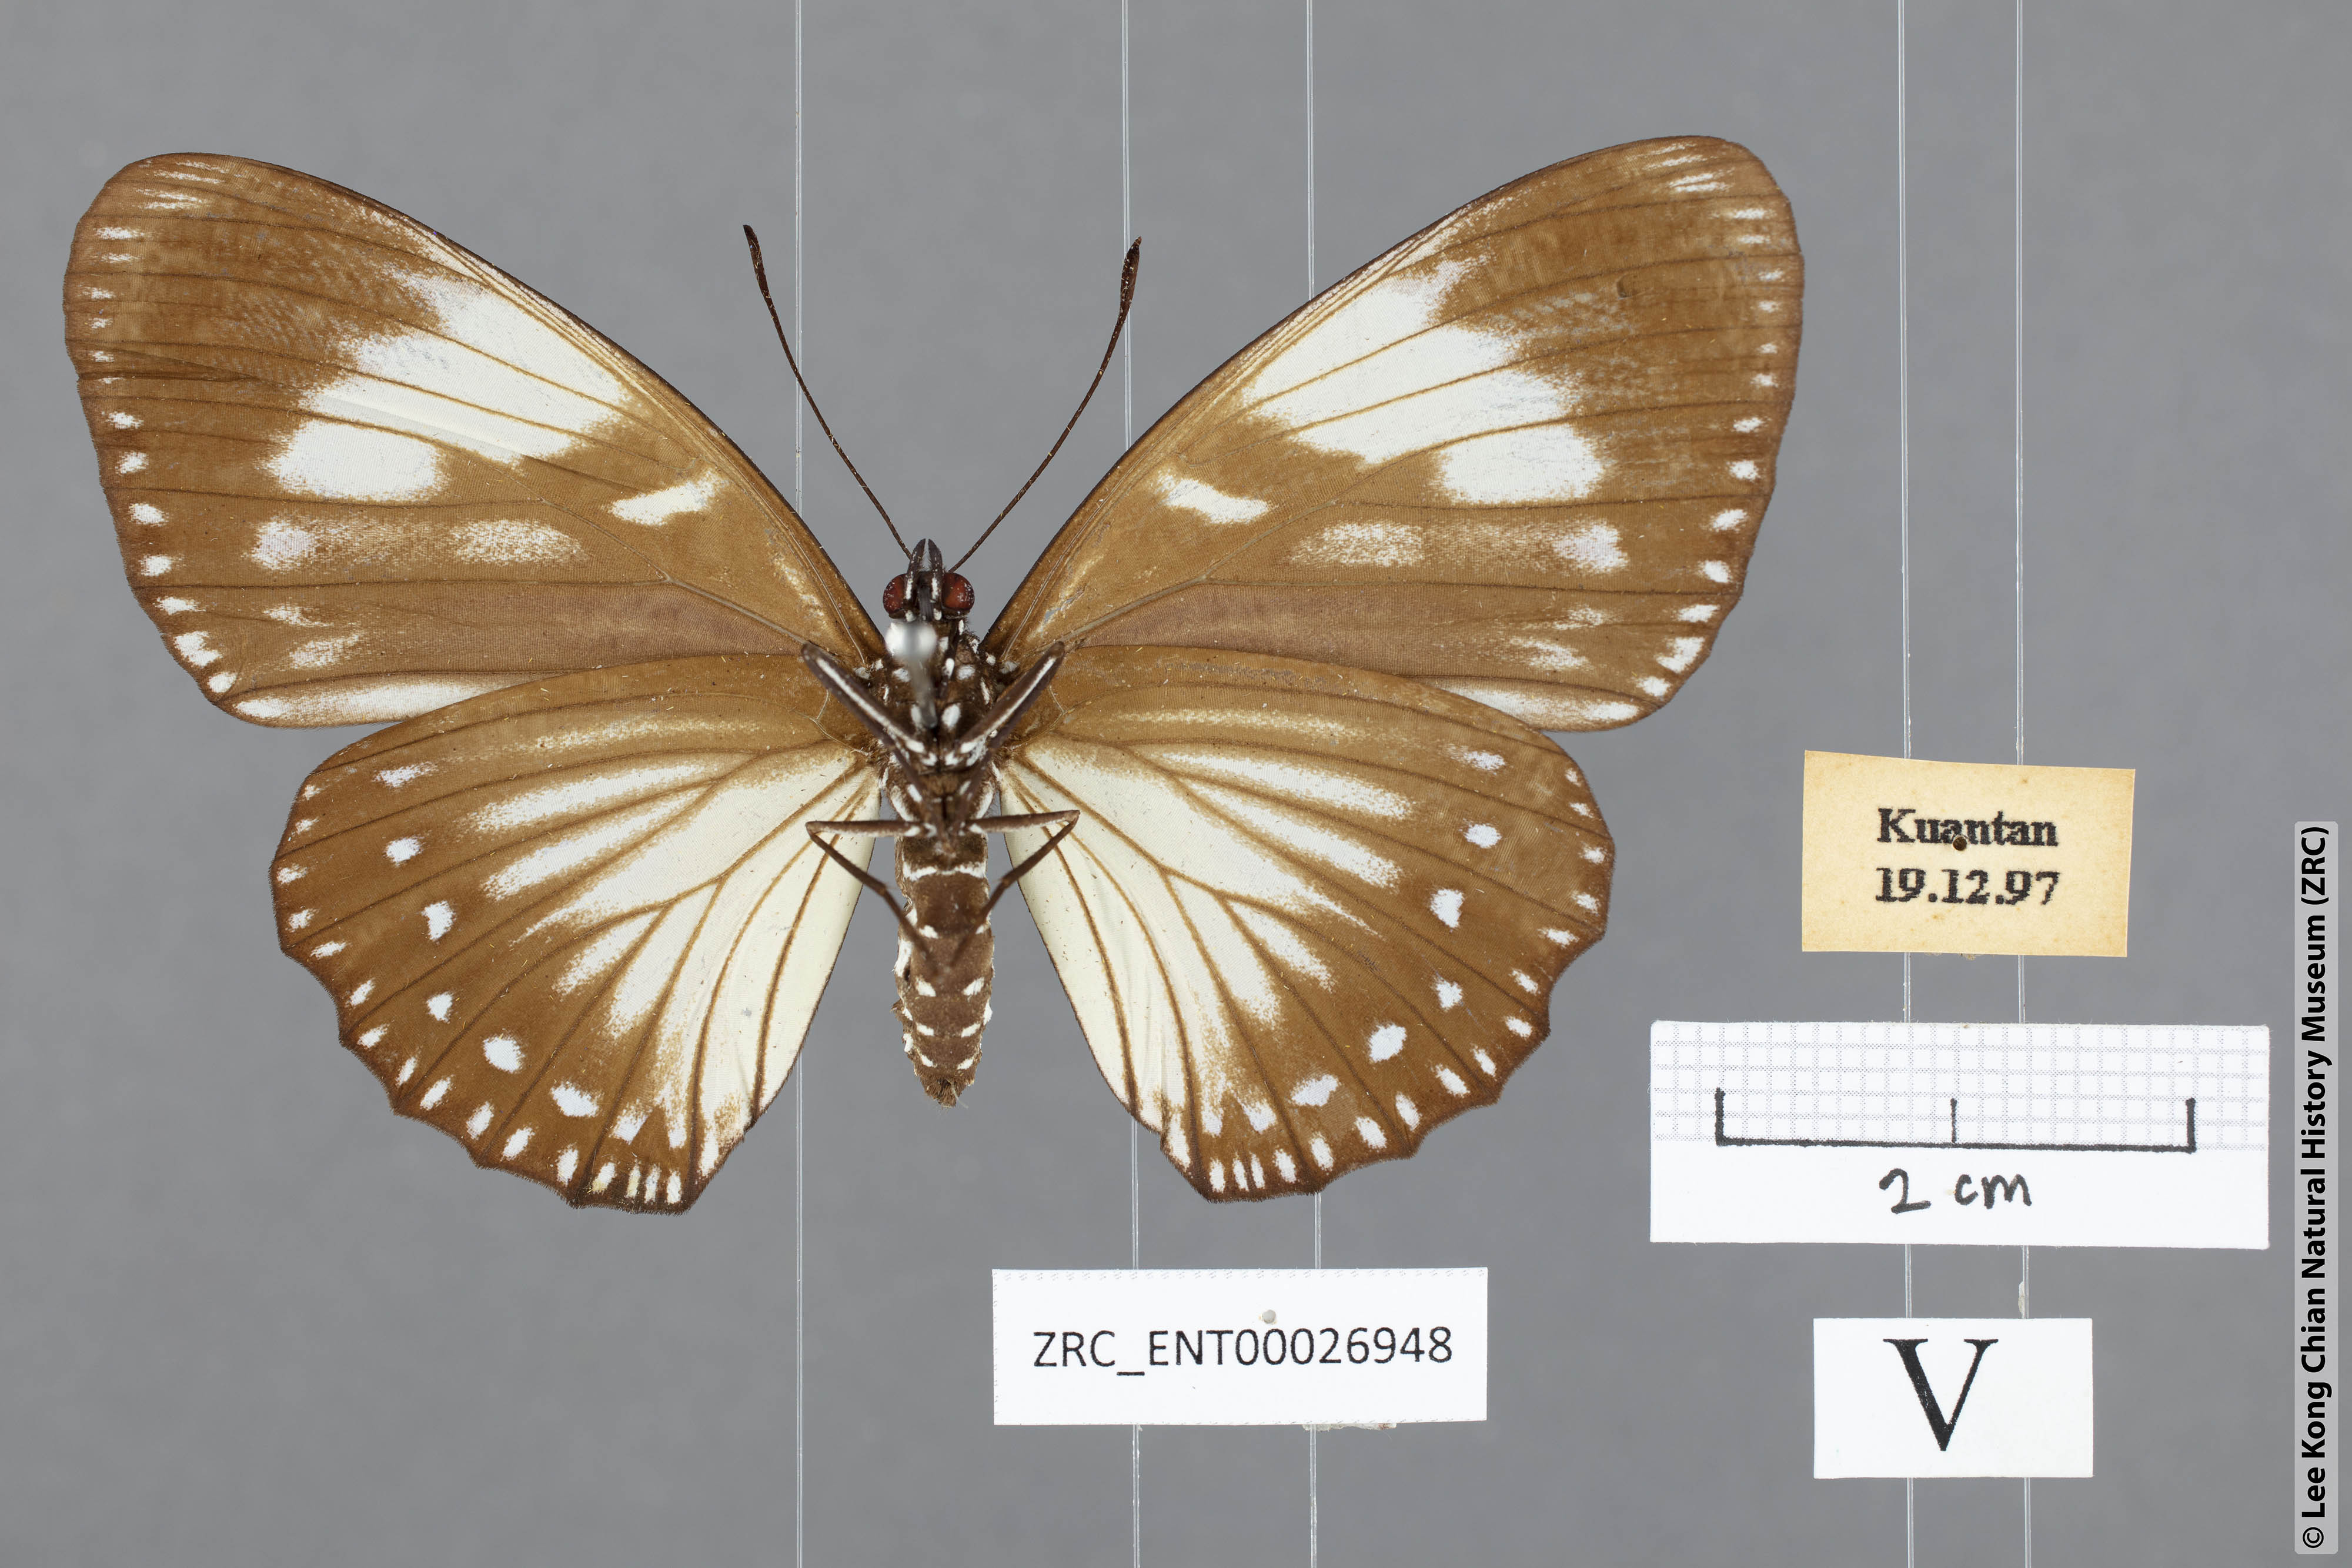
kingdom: Animalia
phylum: Arthropoda
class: Insecta
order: Lepidoptera
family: Nymphalidae
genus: Euripus
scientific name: Euripus nyctelius
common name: Courtesan
